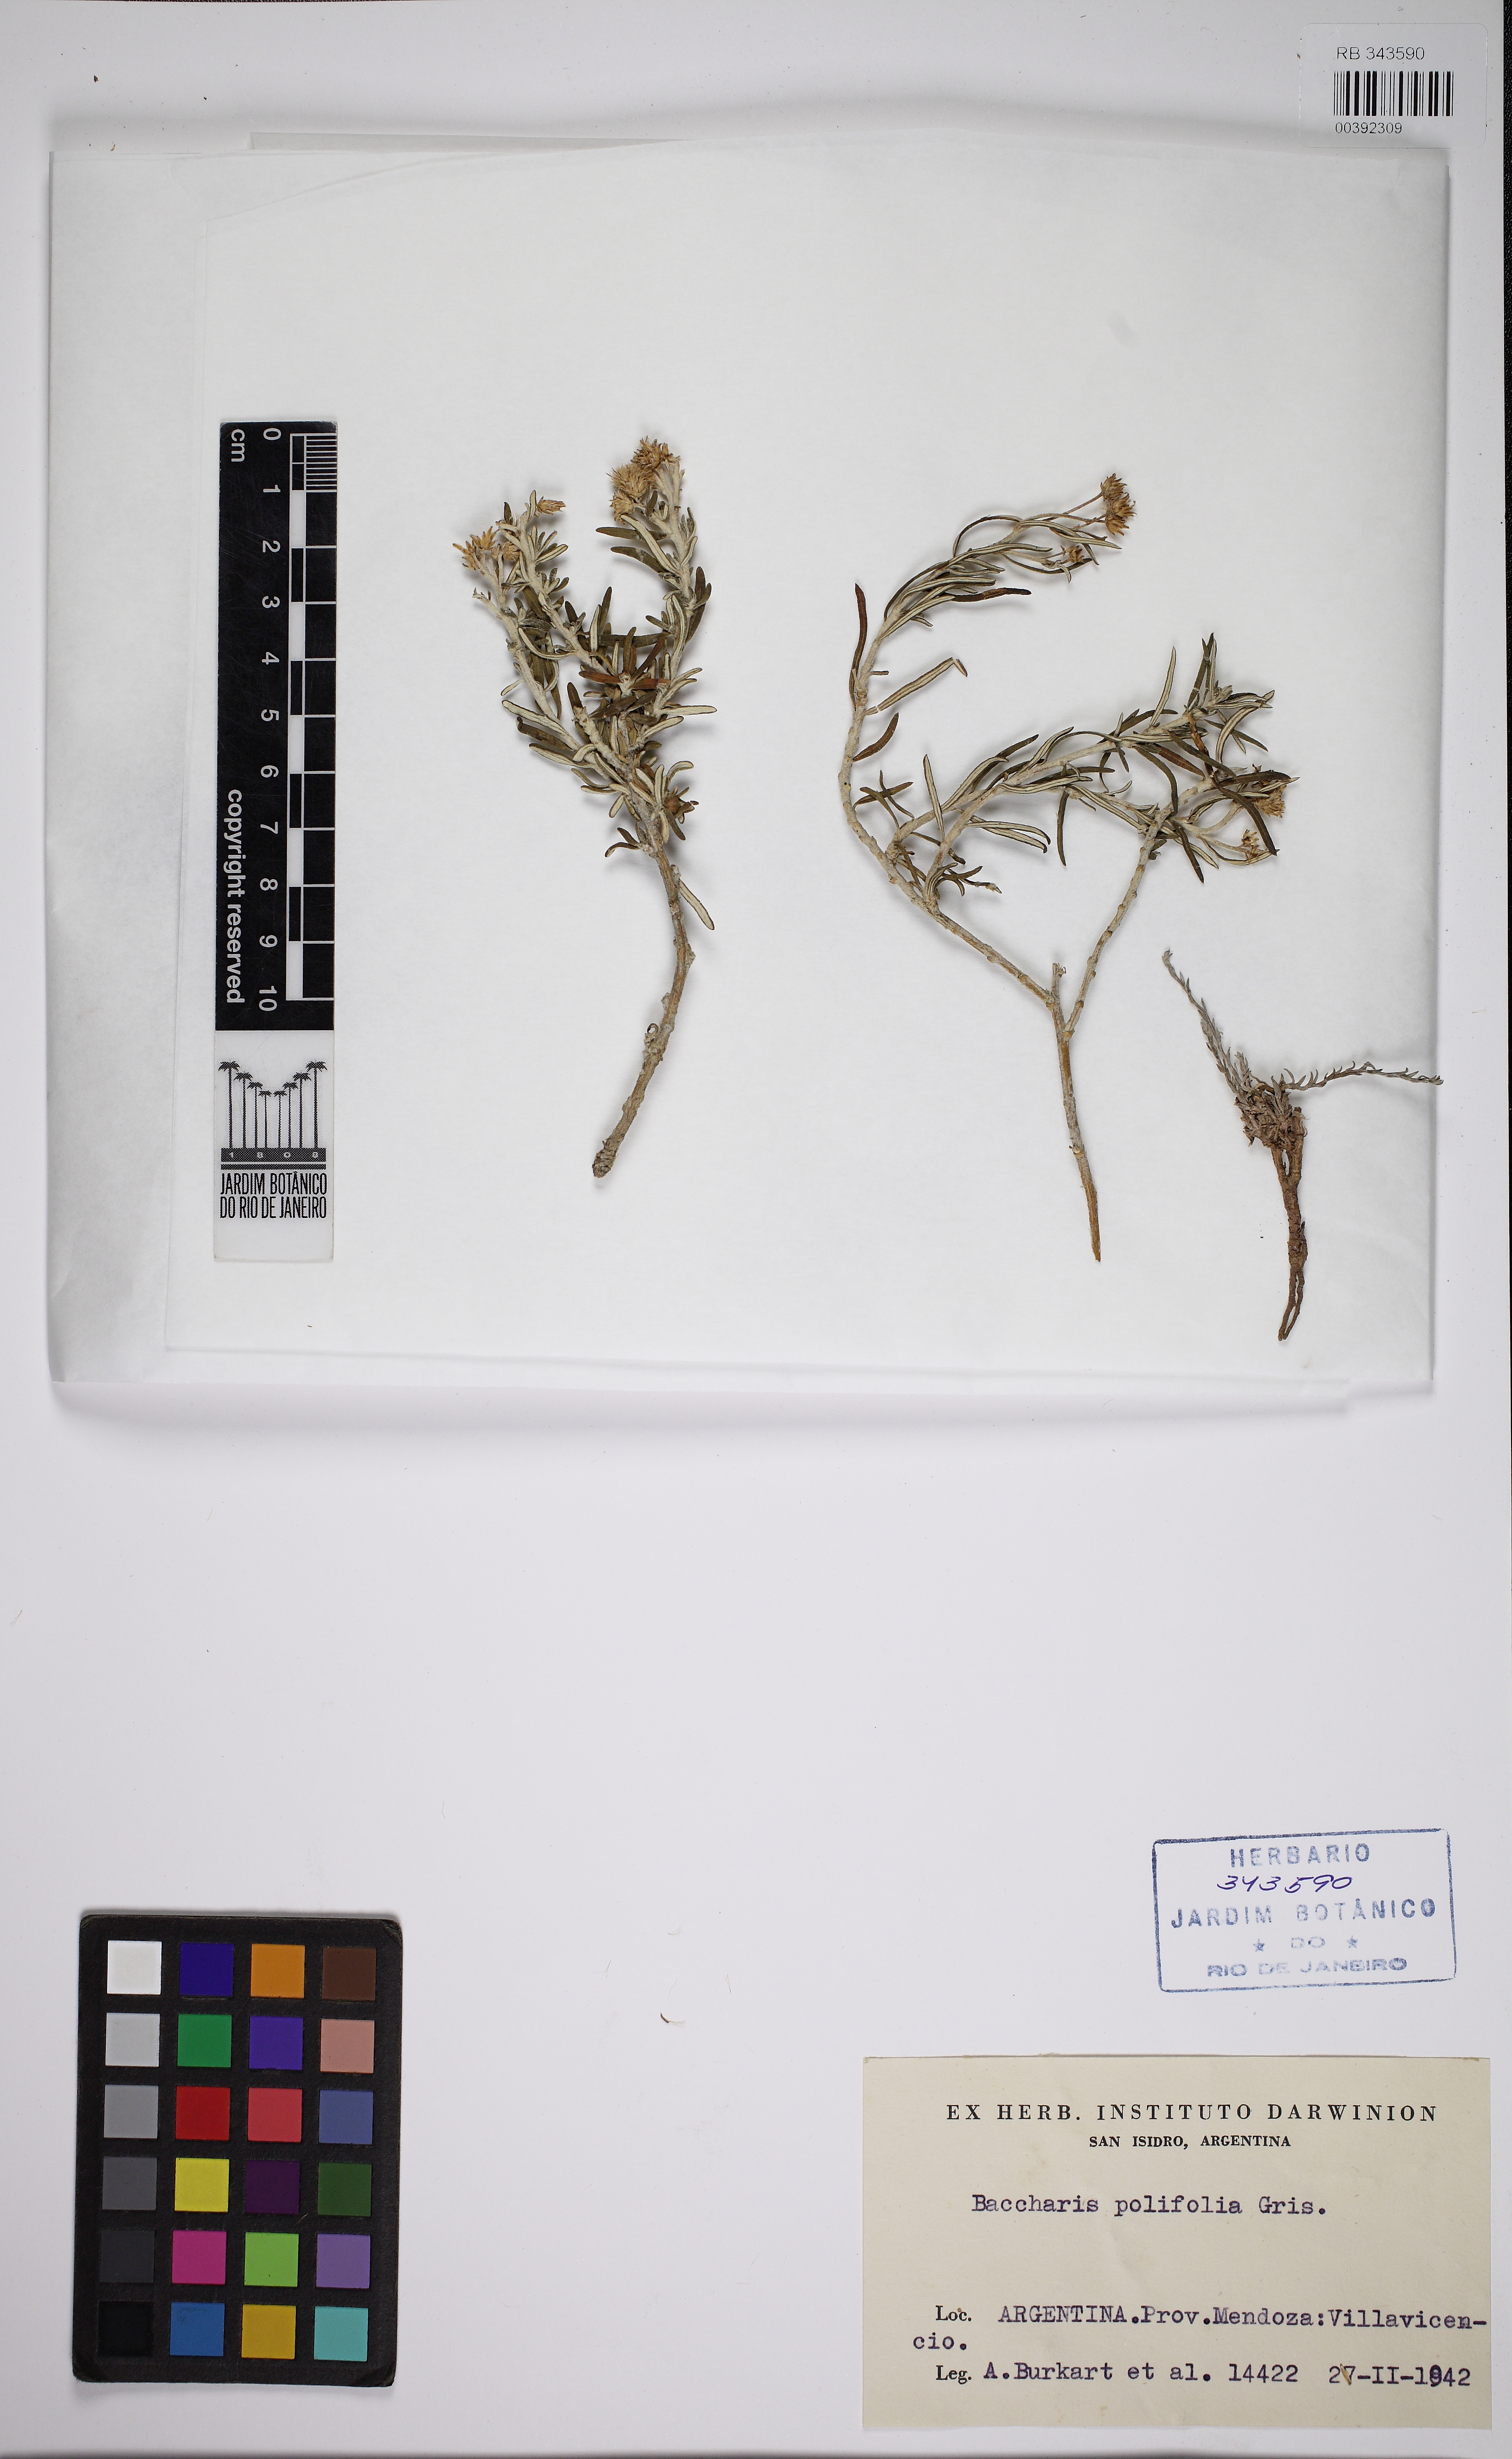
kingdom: Plantae
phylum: Tracheophyta
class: Magnoliopsida
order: Asterales
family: Asteraceae
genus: Baccharis
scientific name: Baccharis polifolia
